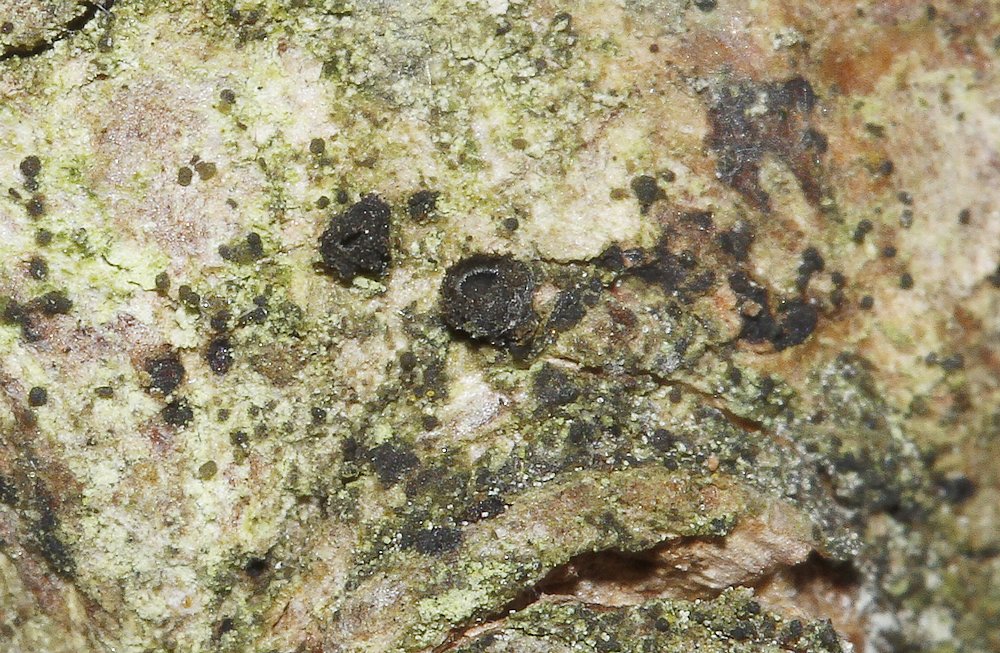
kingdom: Fungi
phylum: Ascomycota
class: Leotiomycetes
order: Helotiales
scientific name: Helotiales
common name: stilkskiveordenen
